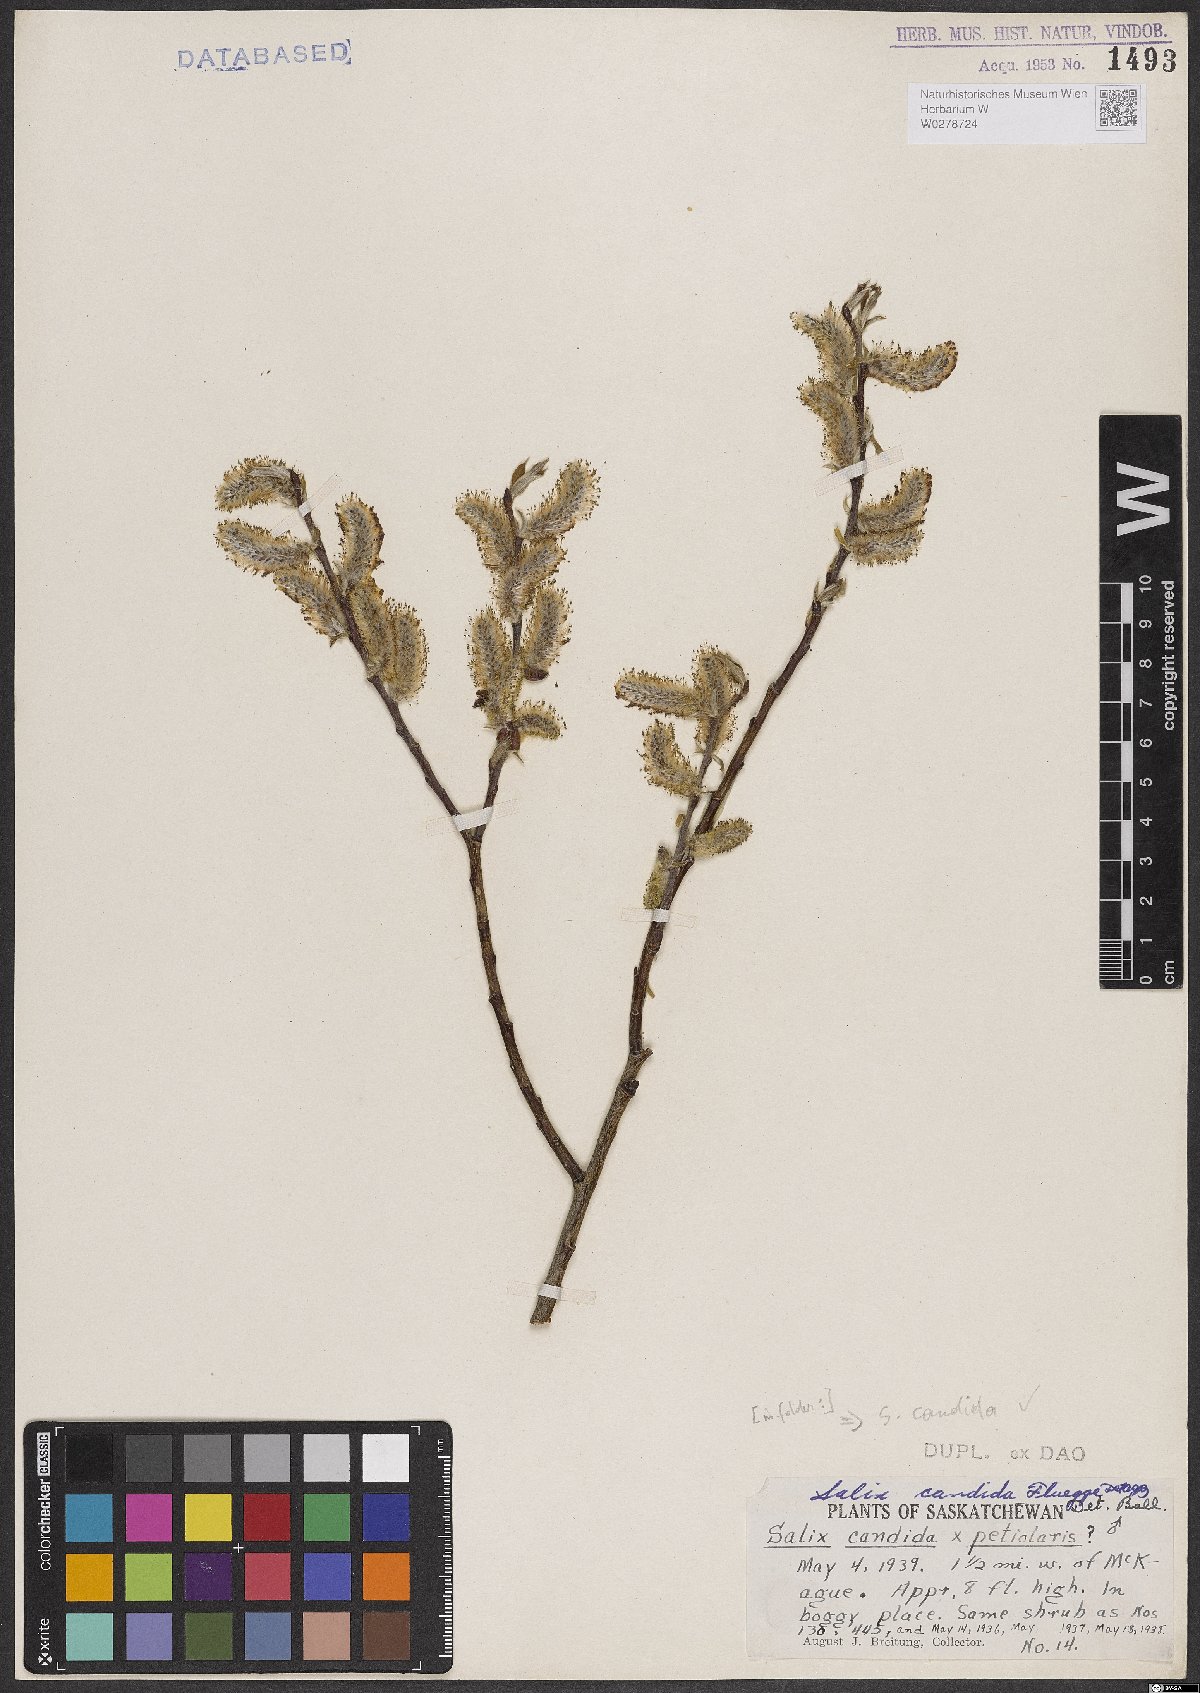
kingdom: Plantae
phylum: Tracheophyta
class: Magnoliopsida
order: Malpighiales
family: Salicaceae
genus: Salix
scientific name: Salix candida
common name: Hoary willow
